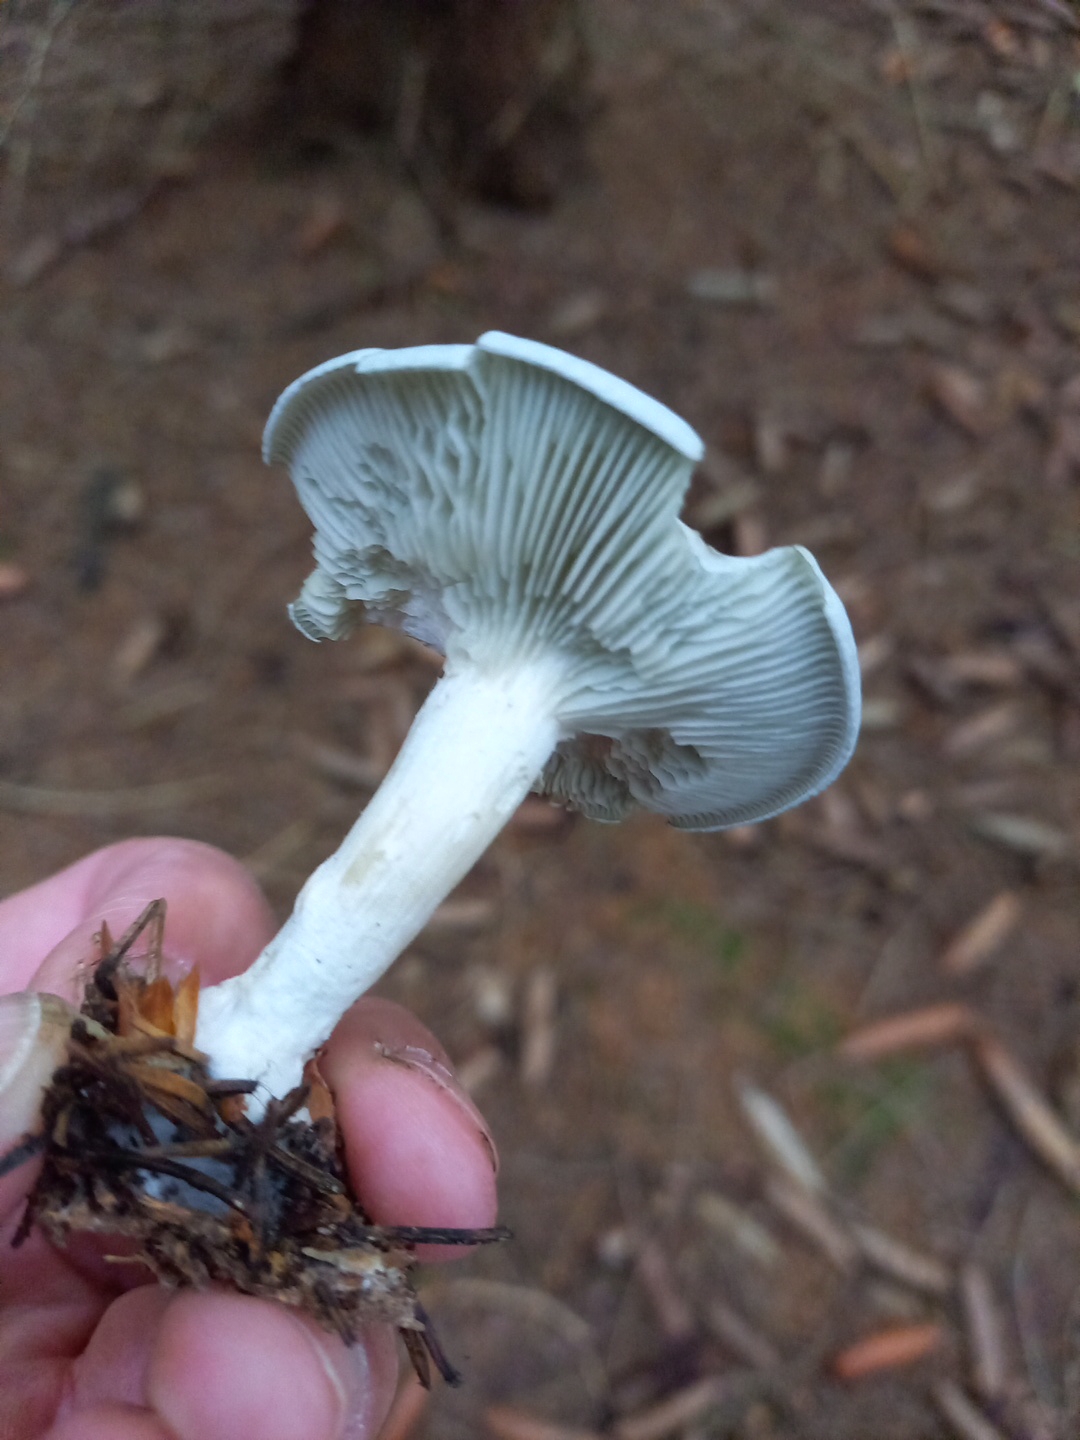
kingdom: Fungi
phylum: Basidiomycota
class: Agaricomycetes
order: Agaricales
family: Tricholomataceae
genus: Clitocybe
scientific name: Clitocybe odora
